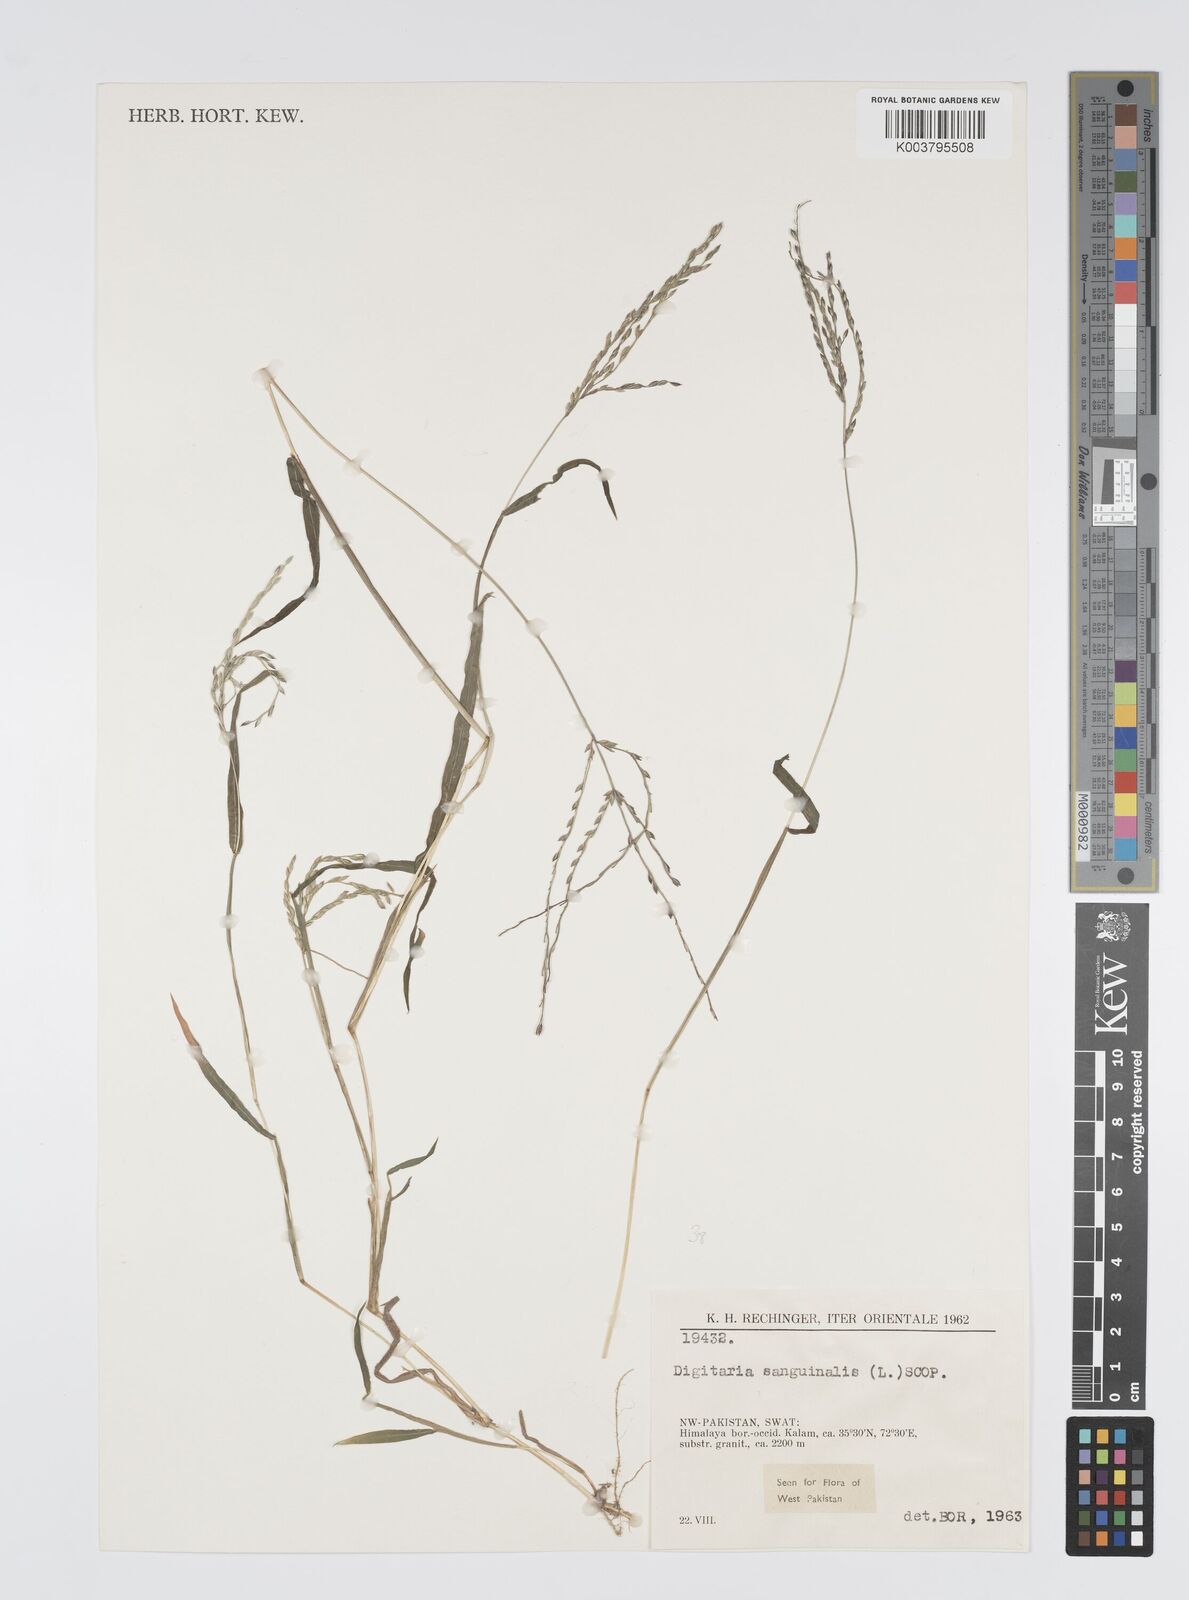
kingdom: Plantae
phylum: Tracheophyta
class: Liliopsida
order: Poales
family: Poaceae
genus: Digitaria
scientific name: Digitaria sanguinalis
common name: Hairy crabgrass
